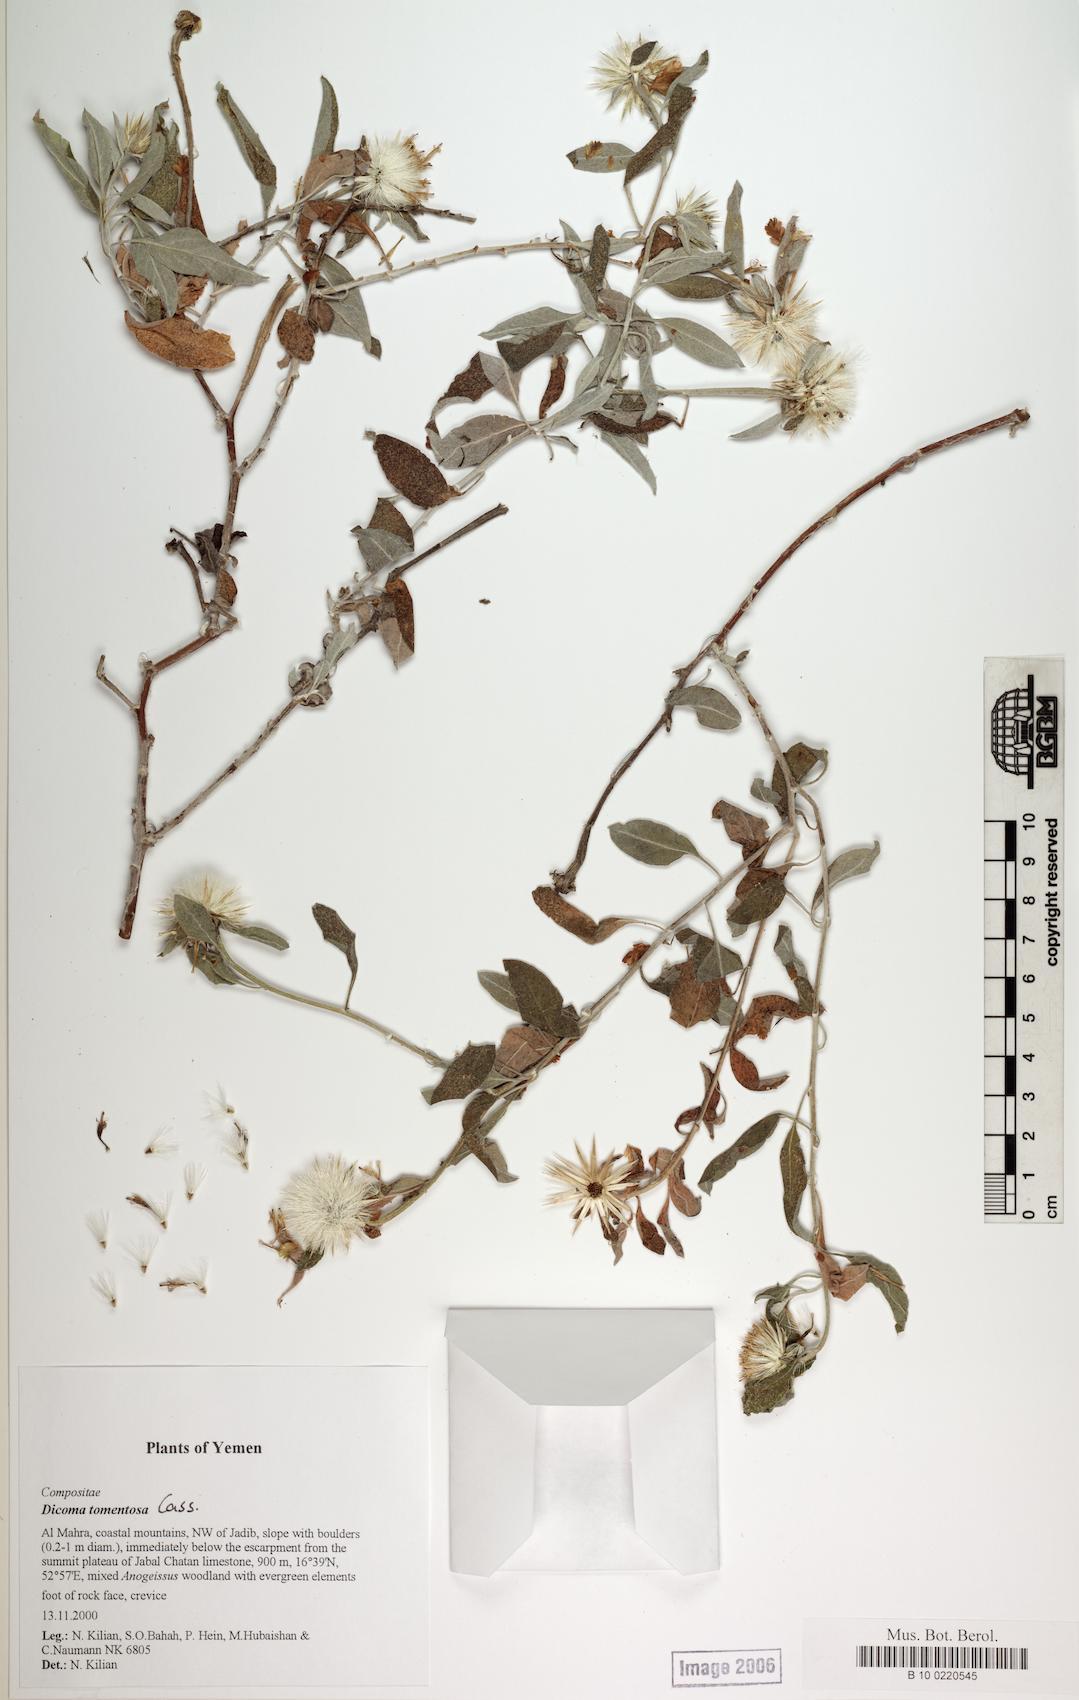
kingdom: Plantae
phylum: Tracheophyta
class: Magnoliopsida
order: Caryophyllales
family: Caryophyllaceae
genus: Stellaria
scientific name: Stellaria media
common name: Common chickweed
